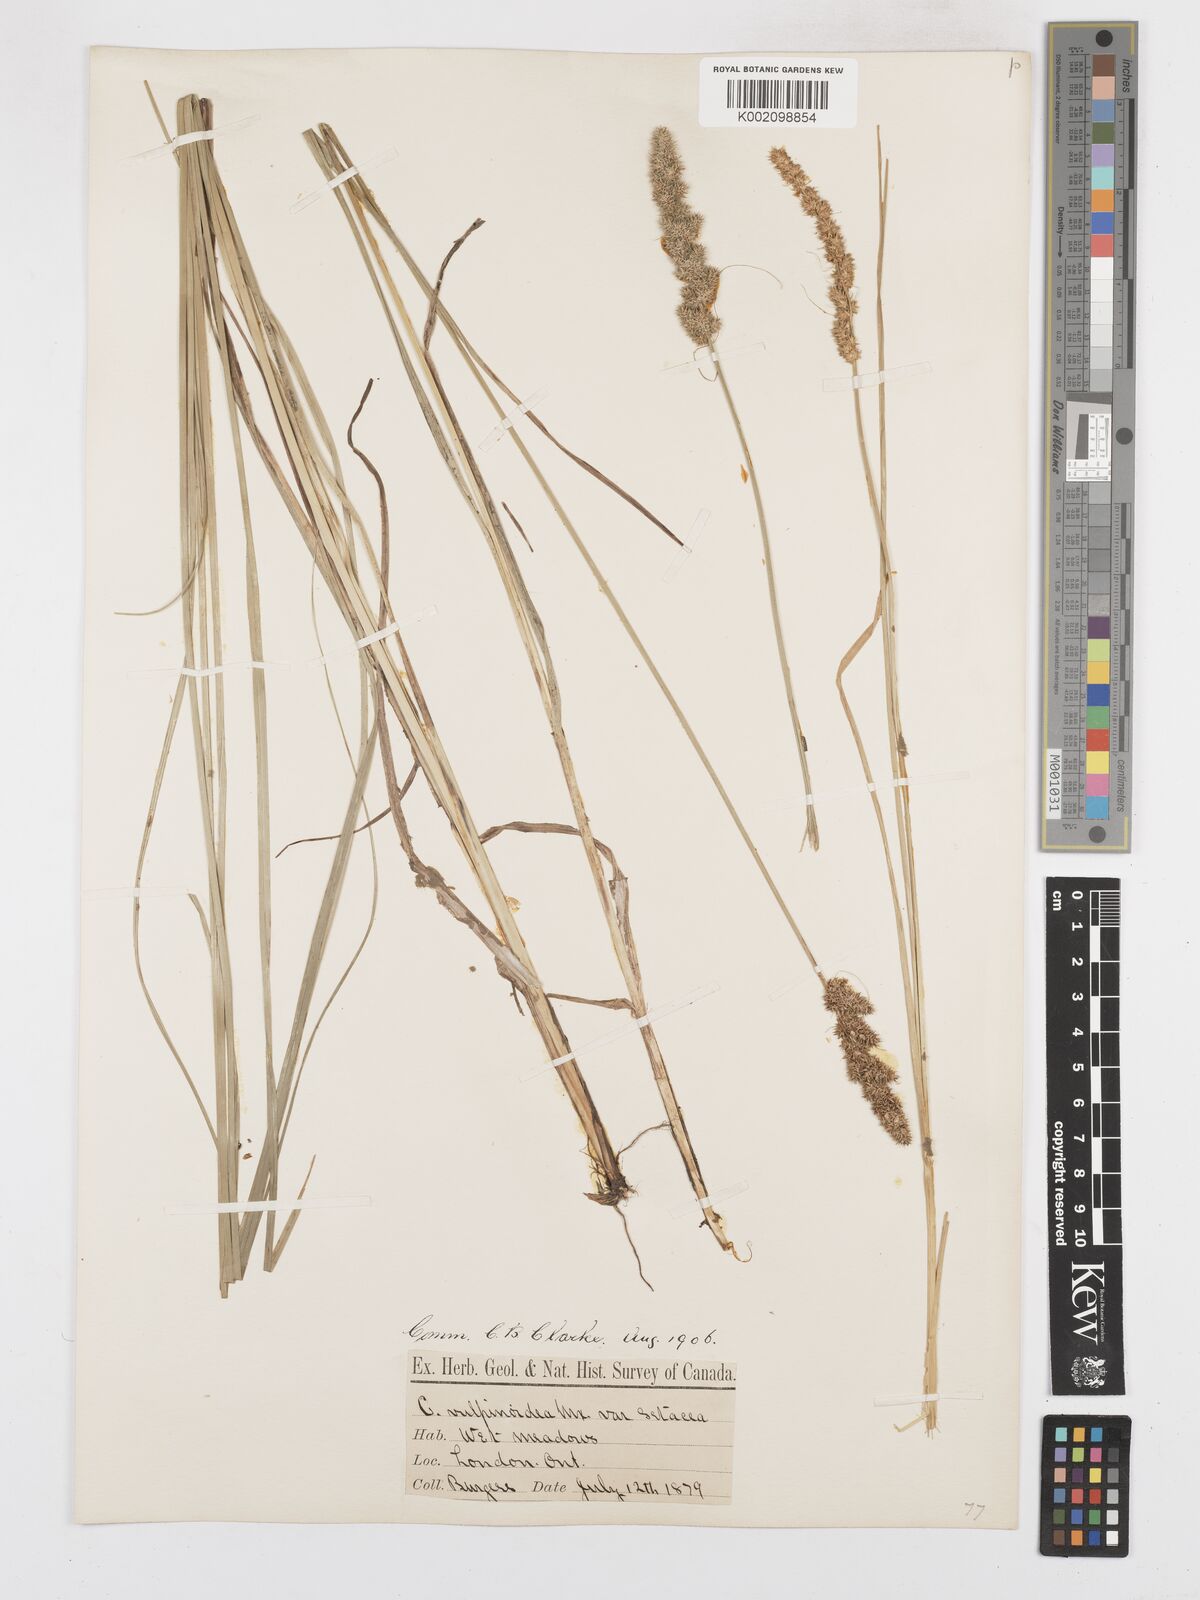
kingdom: Plantae
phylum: Tracheophyta
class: Liliopsida
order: Poales
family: Cyperaceae
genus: Carex
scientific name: Carex vulpinoidea
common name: American fox-sedge
